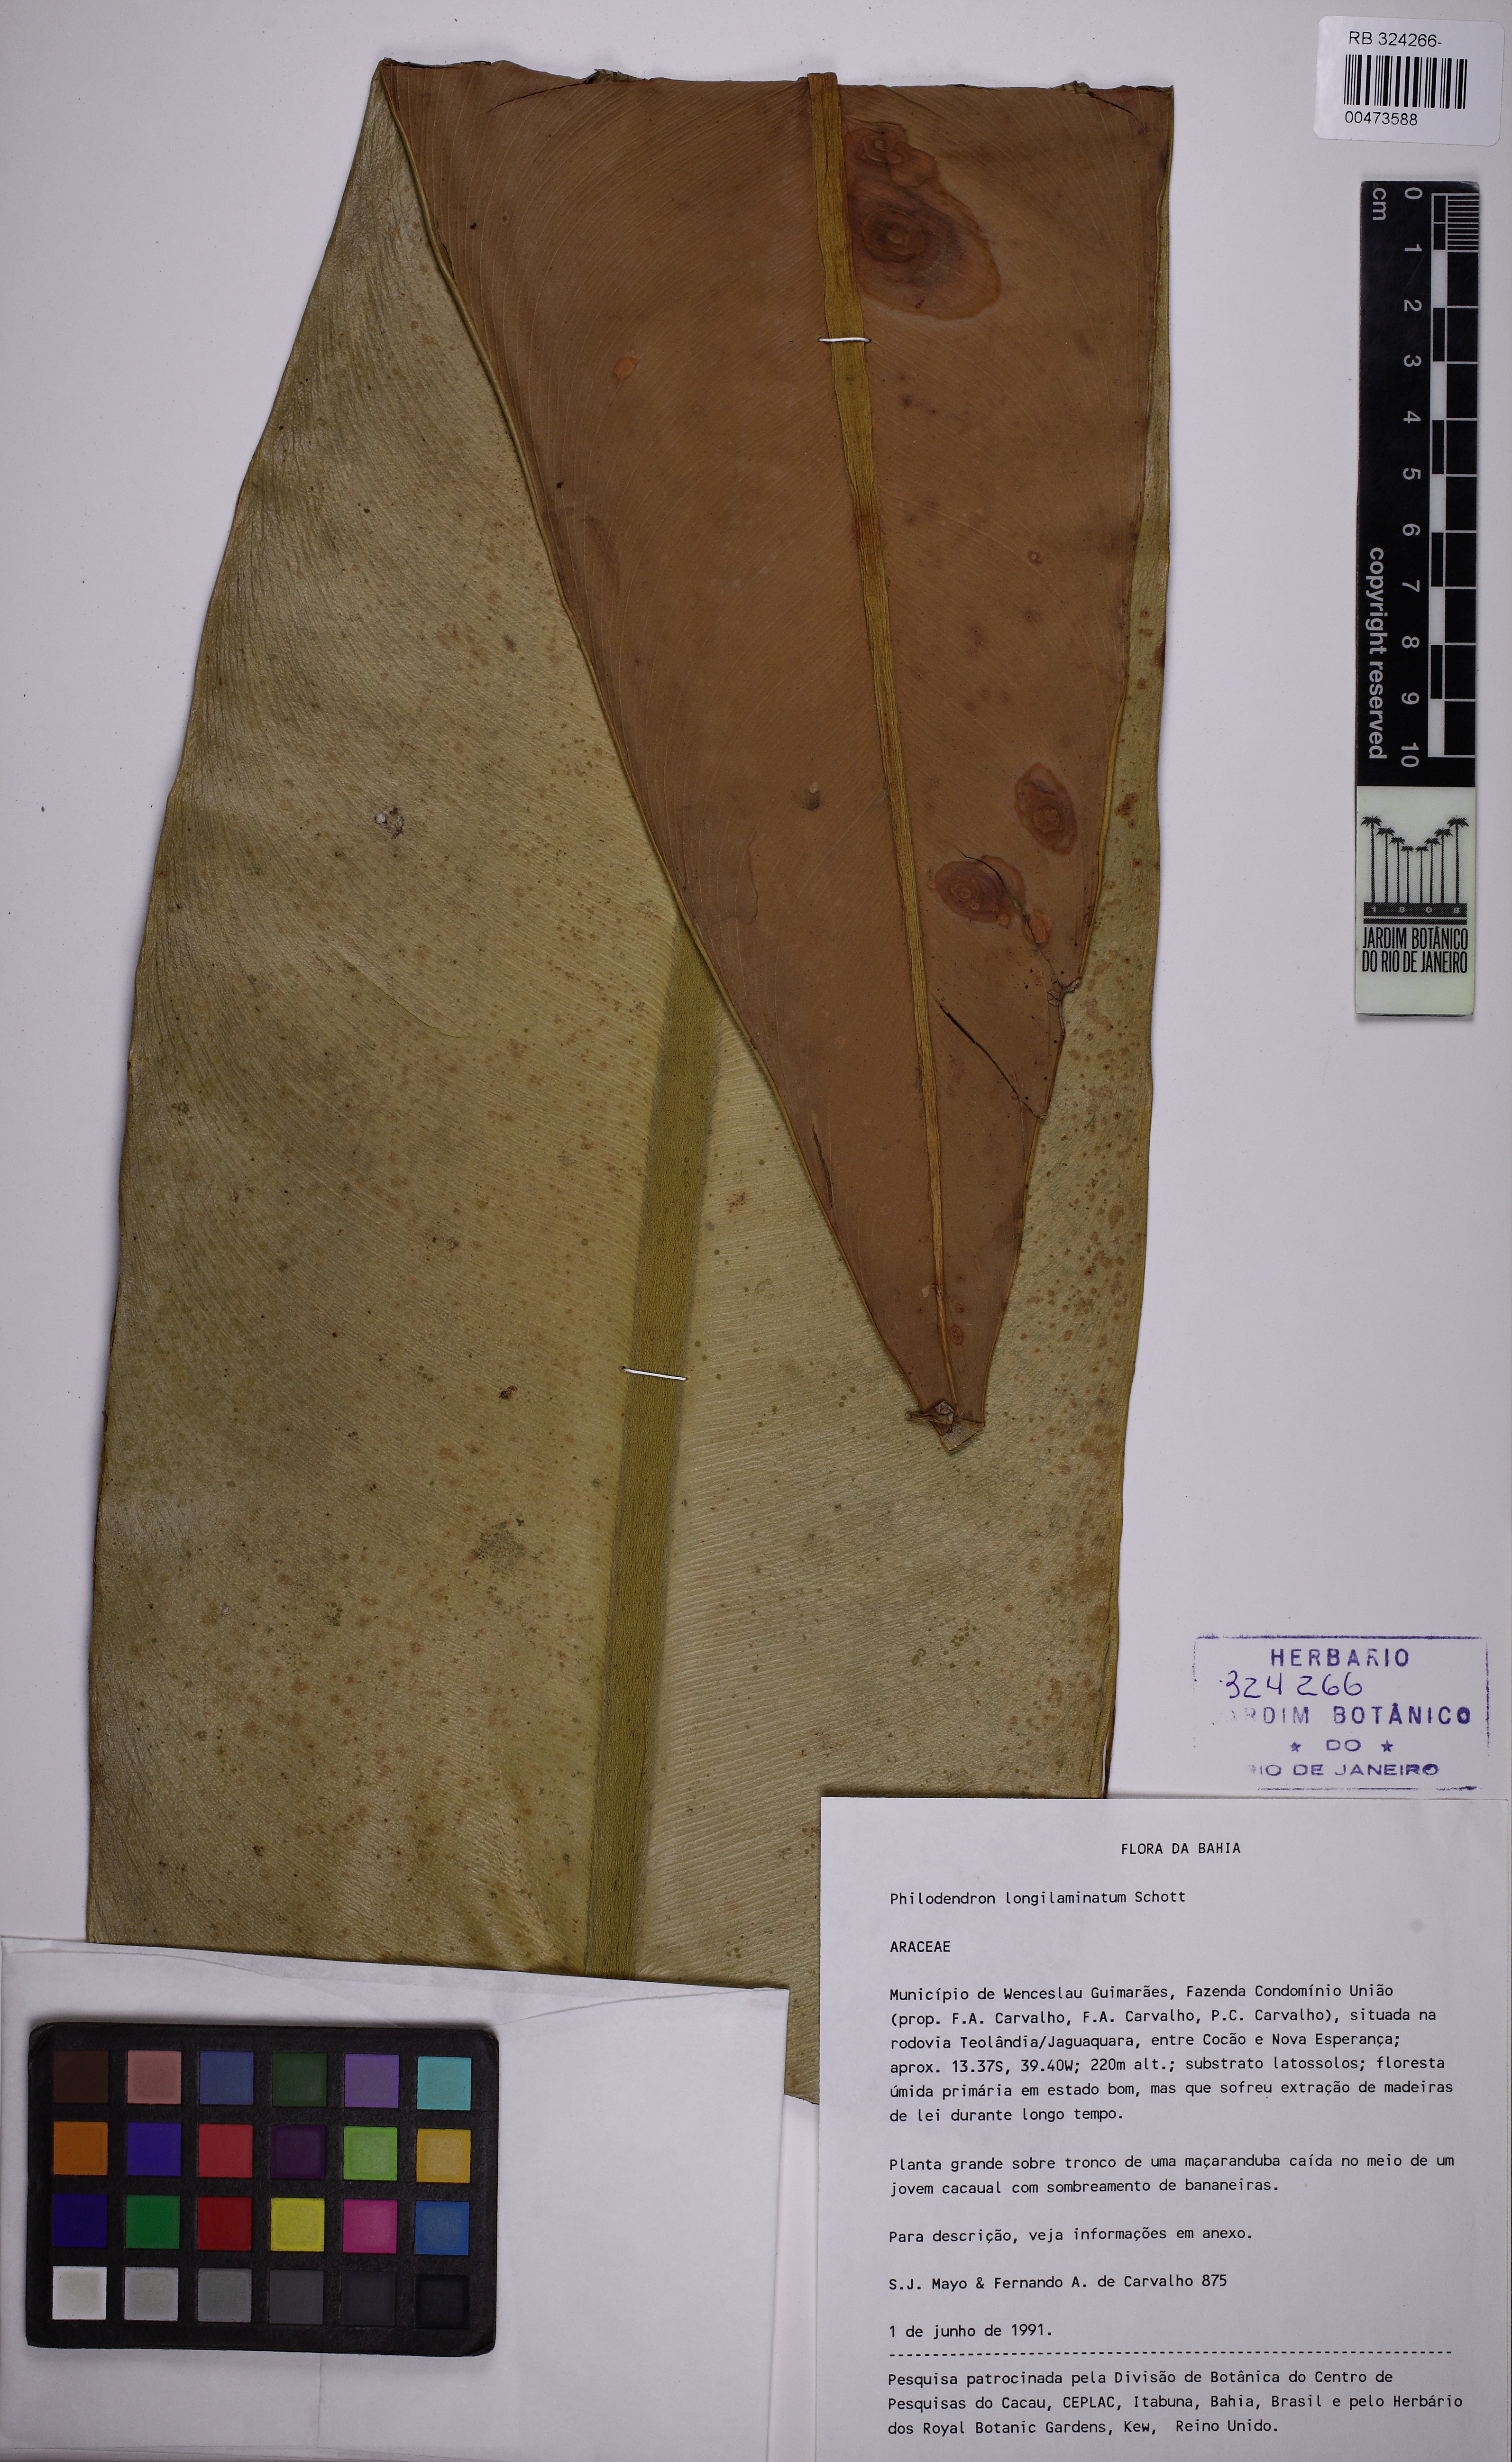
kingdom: Plantae
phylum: Tracheophyta
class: Liliopsida
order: Alismatales
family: Araceae
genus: Philodendron
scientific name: Philodendron longilaminatum
